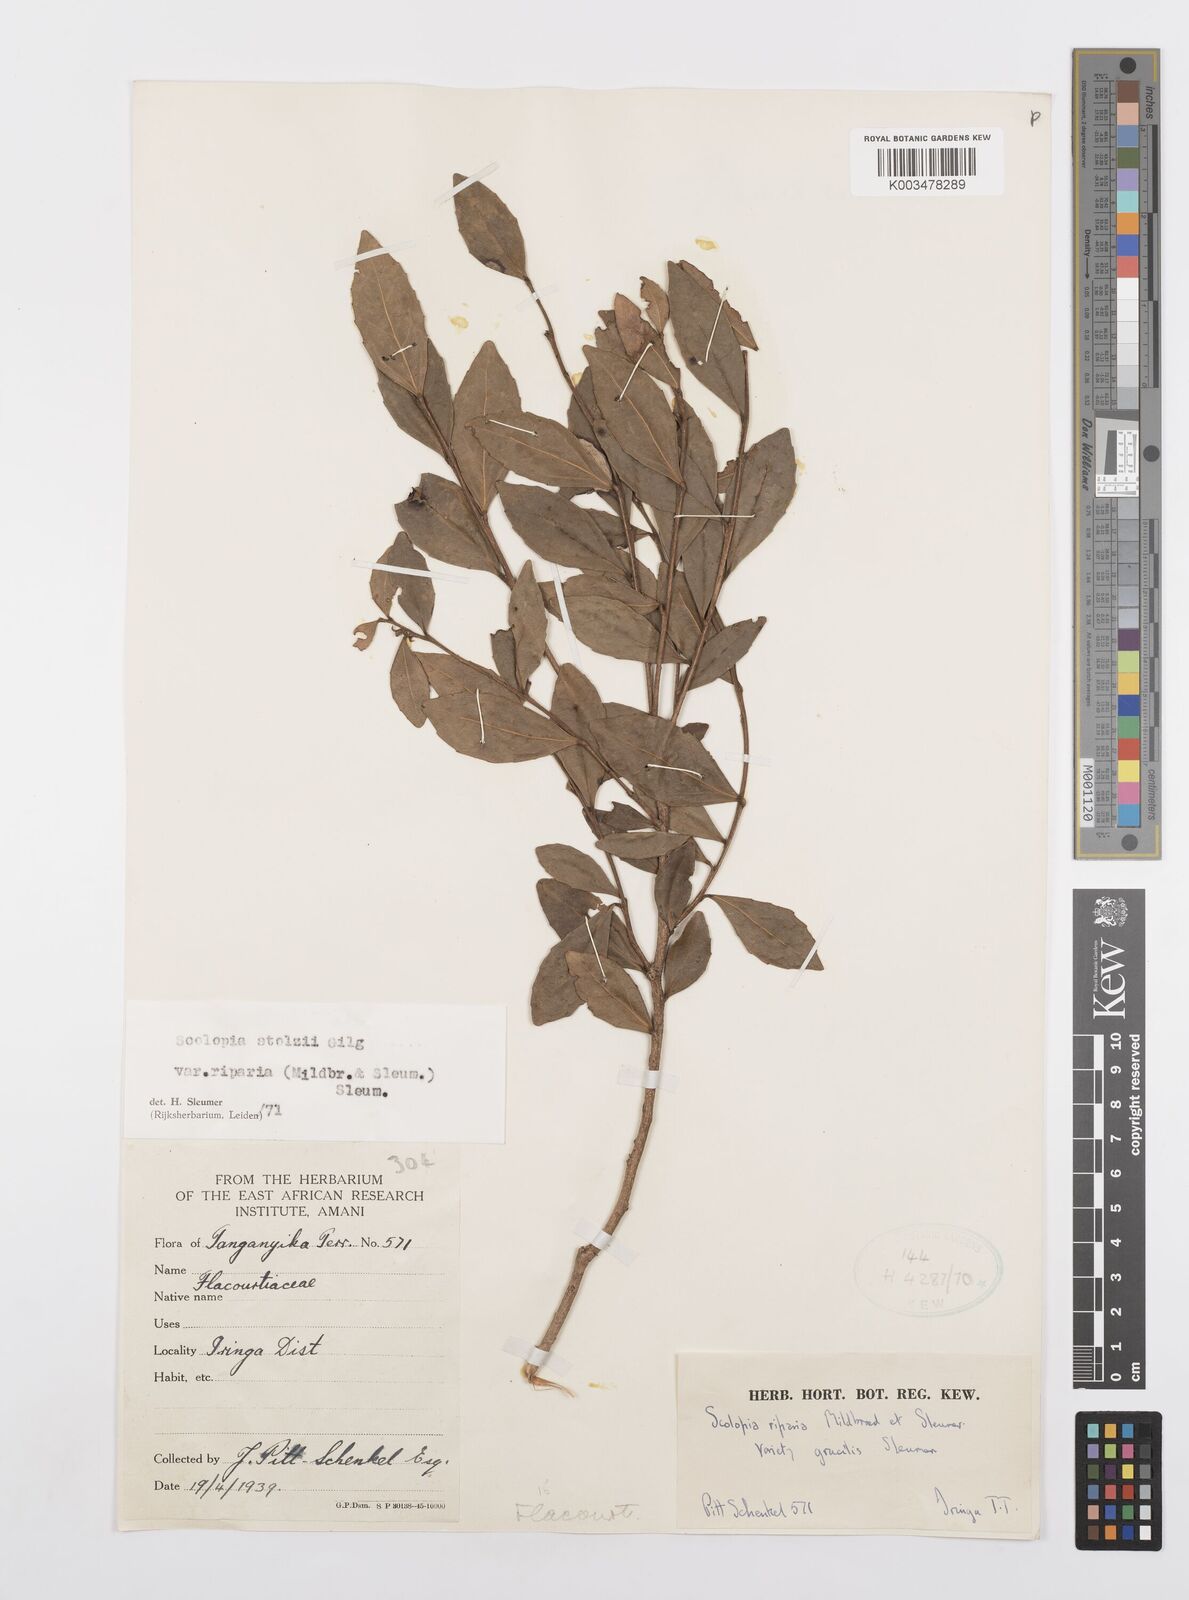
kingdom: Plantae
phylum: Tracheophyta
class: Magnoliopsida
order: Malpighiales
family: Salicaceae
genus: Scolopia
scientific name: Scolopia stolzii
